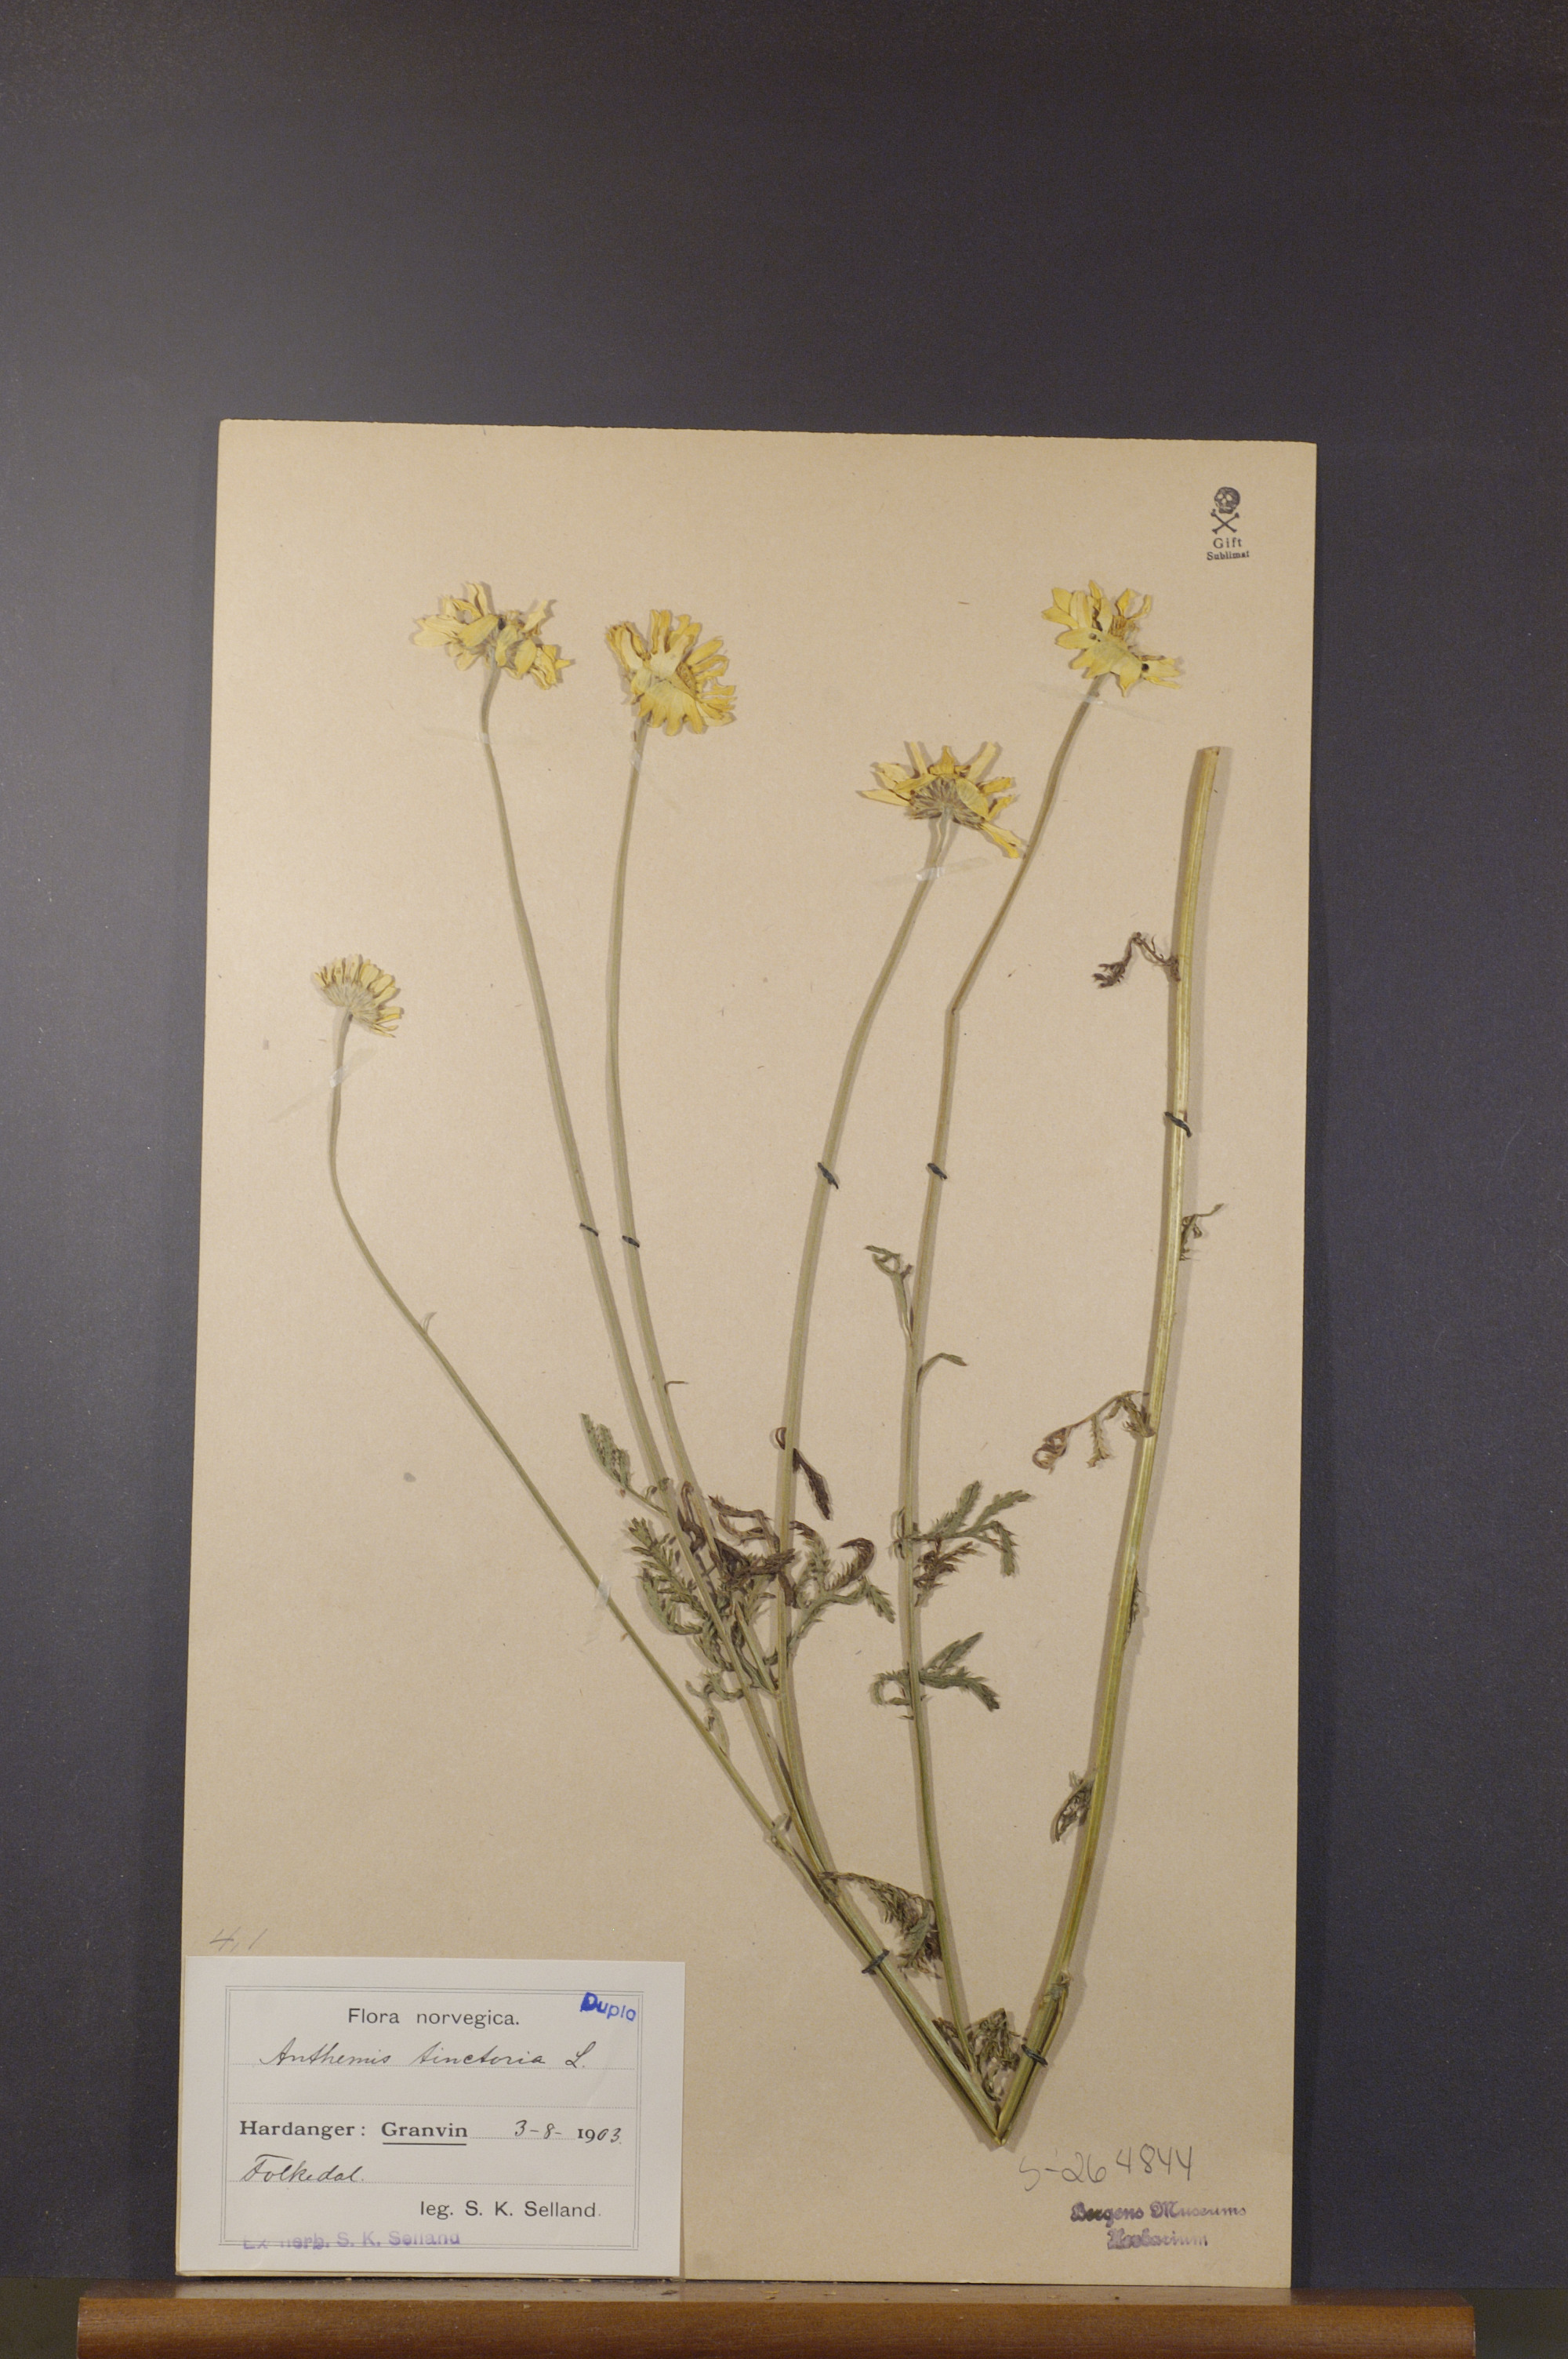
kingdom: Plantae
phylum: Tracheophyta
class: Magnoliopsida
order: Asterales
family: Asteraceae
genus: Cota
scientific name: Cota tinctoria
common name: Golden chamomile
